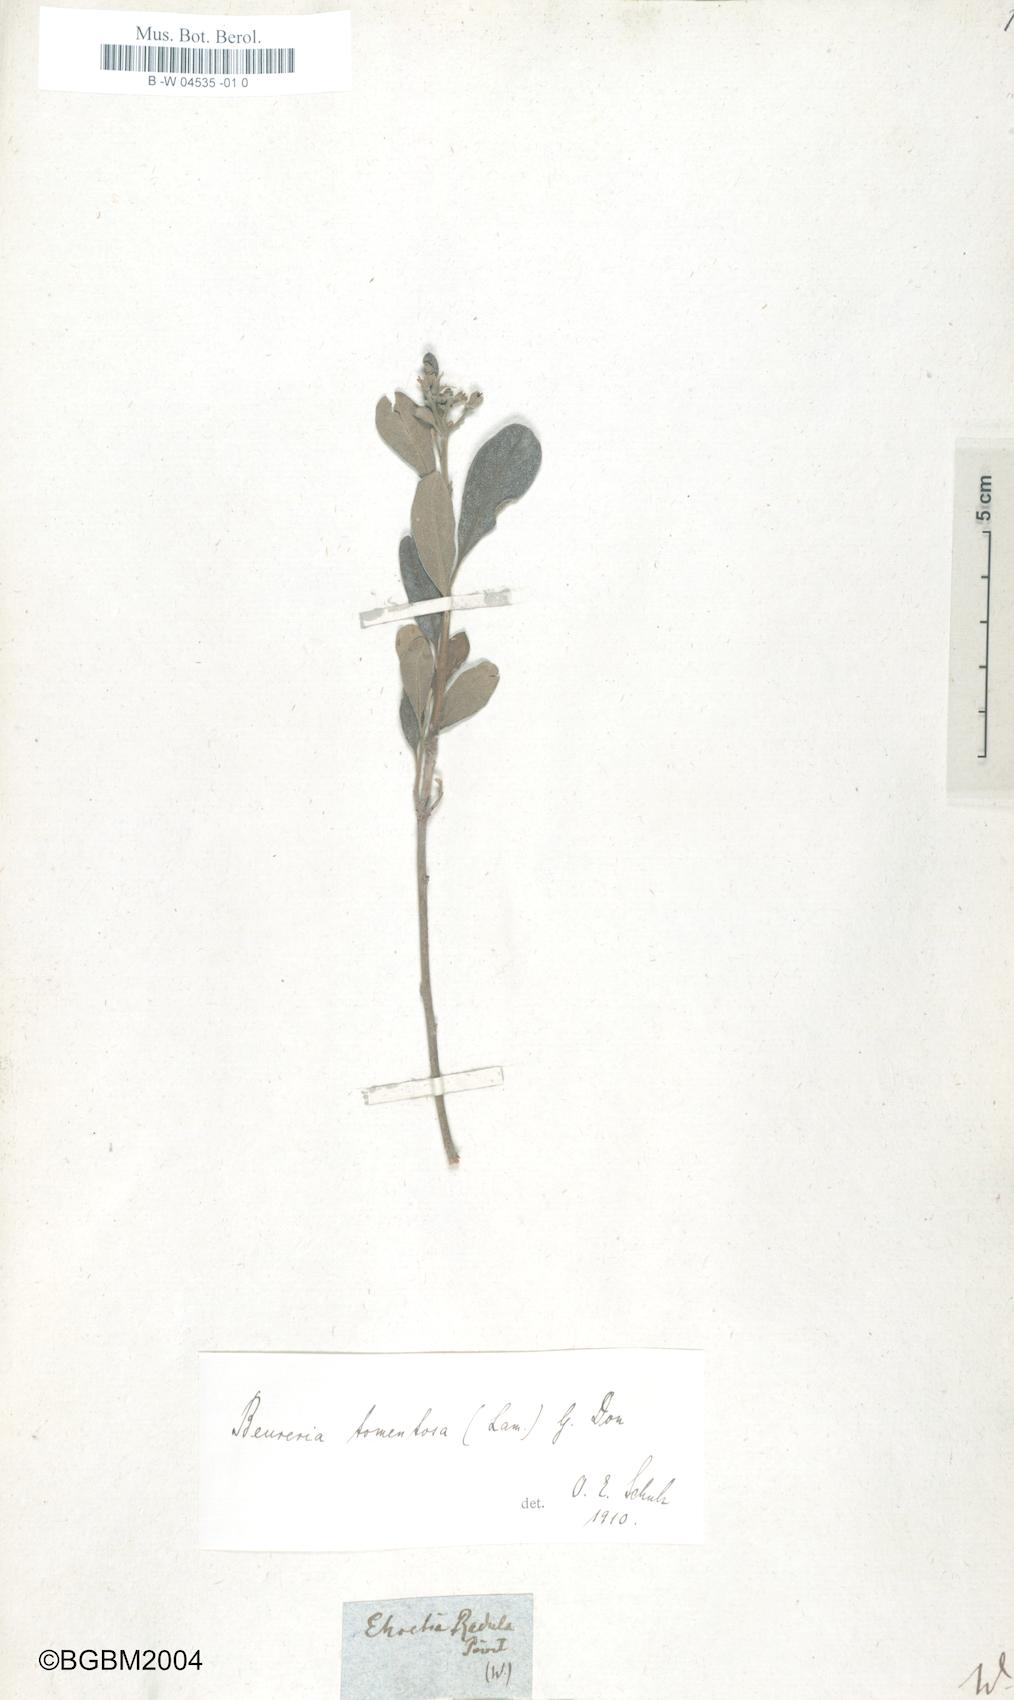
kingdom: Plantae
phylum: Tracheophyta
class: Magnoliopsida
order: Boraginales
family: Ehretiaceae
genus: Bourreria
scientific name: Bourreria tomentosa
